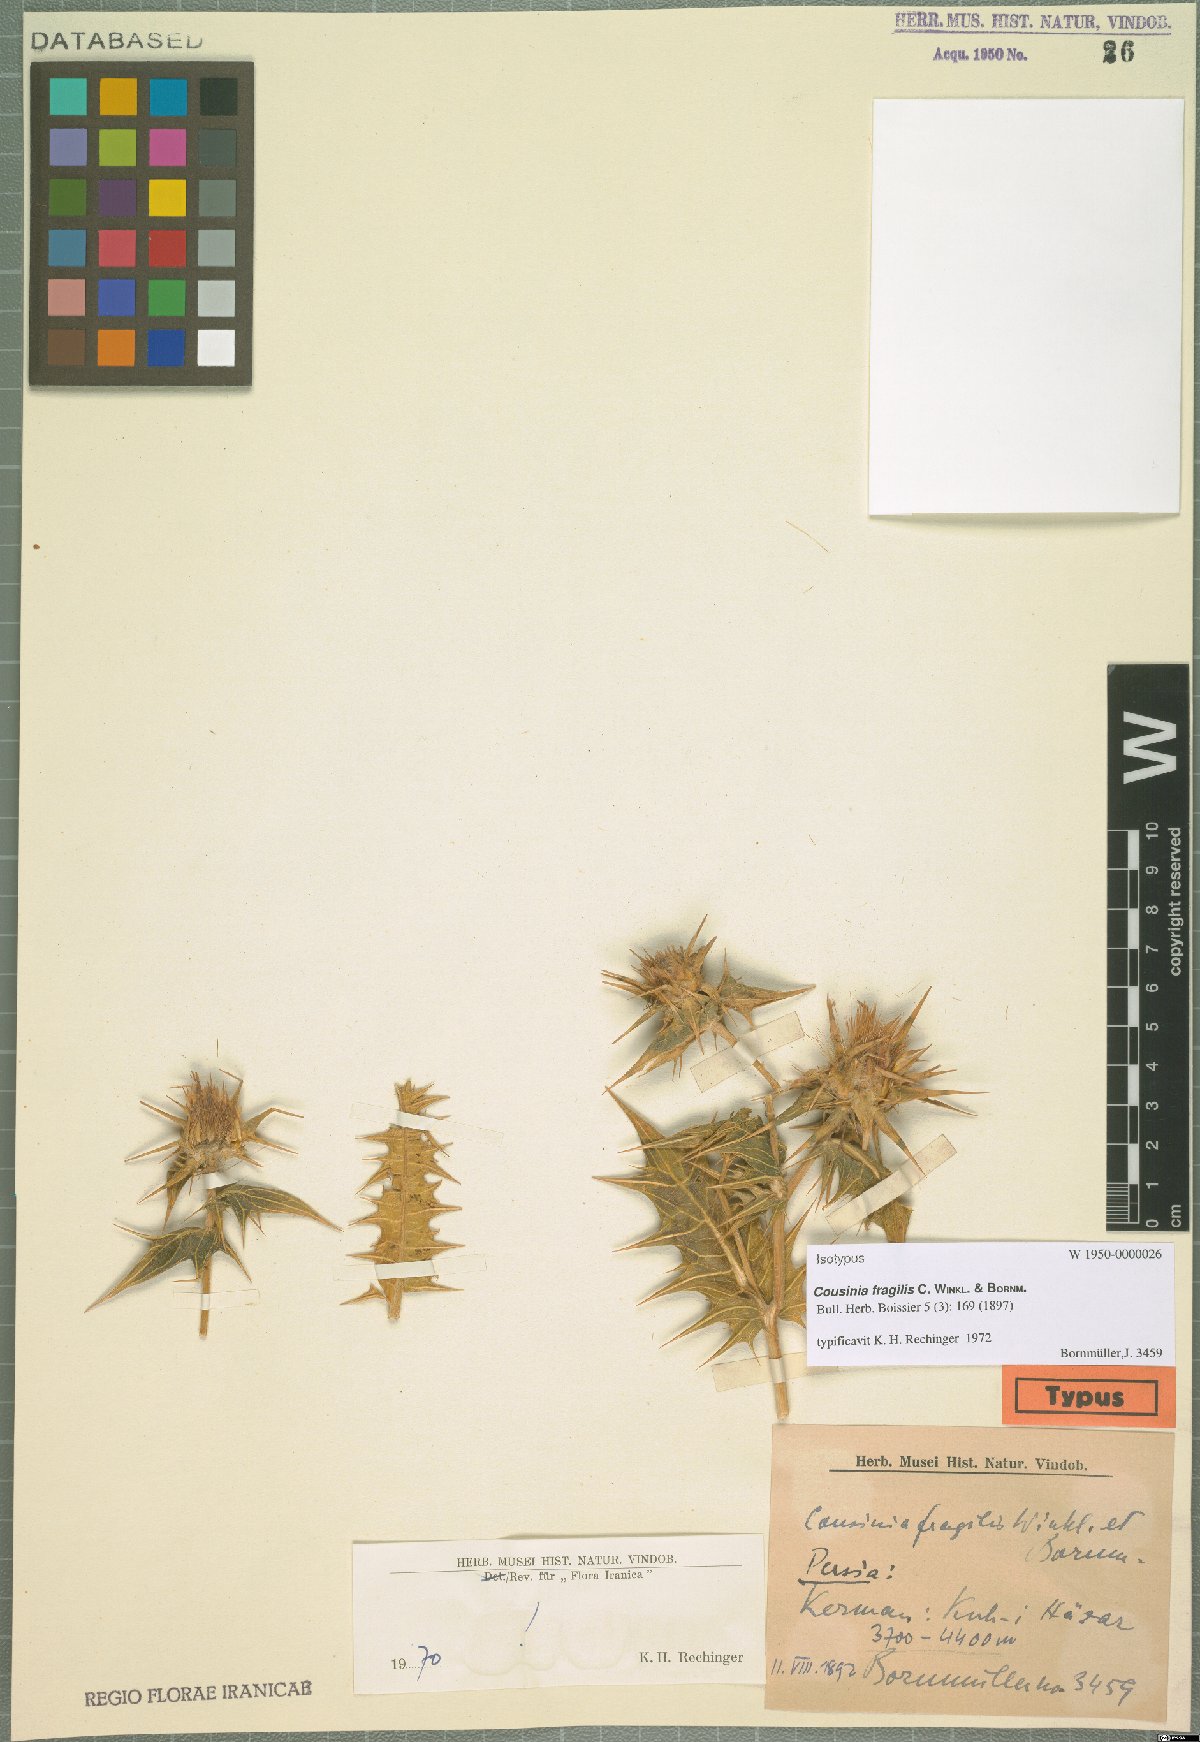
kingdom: Plantae
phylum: Tracheophyta
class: Magnoliopsida
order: Asterales
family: Asteraceae
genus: Cousinia
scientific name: Cousinia fragilis
